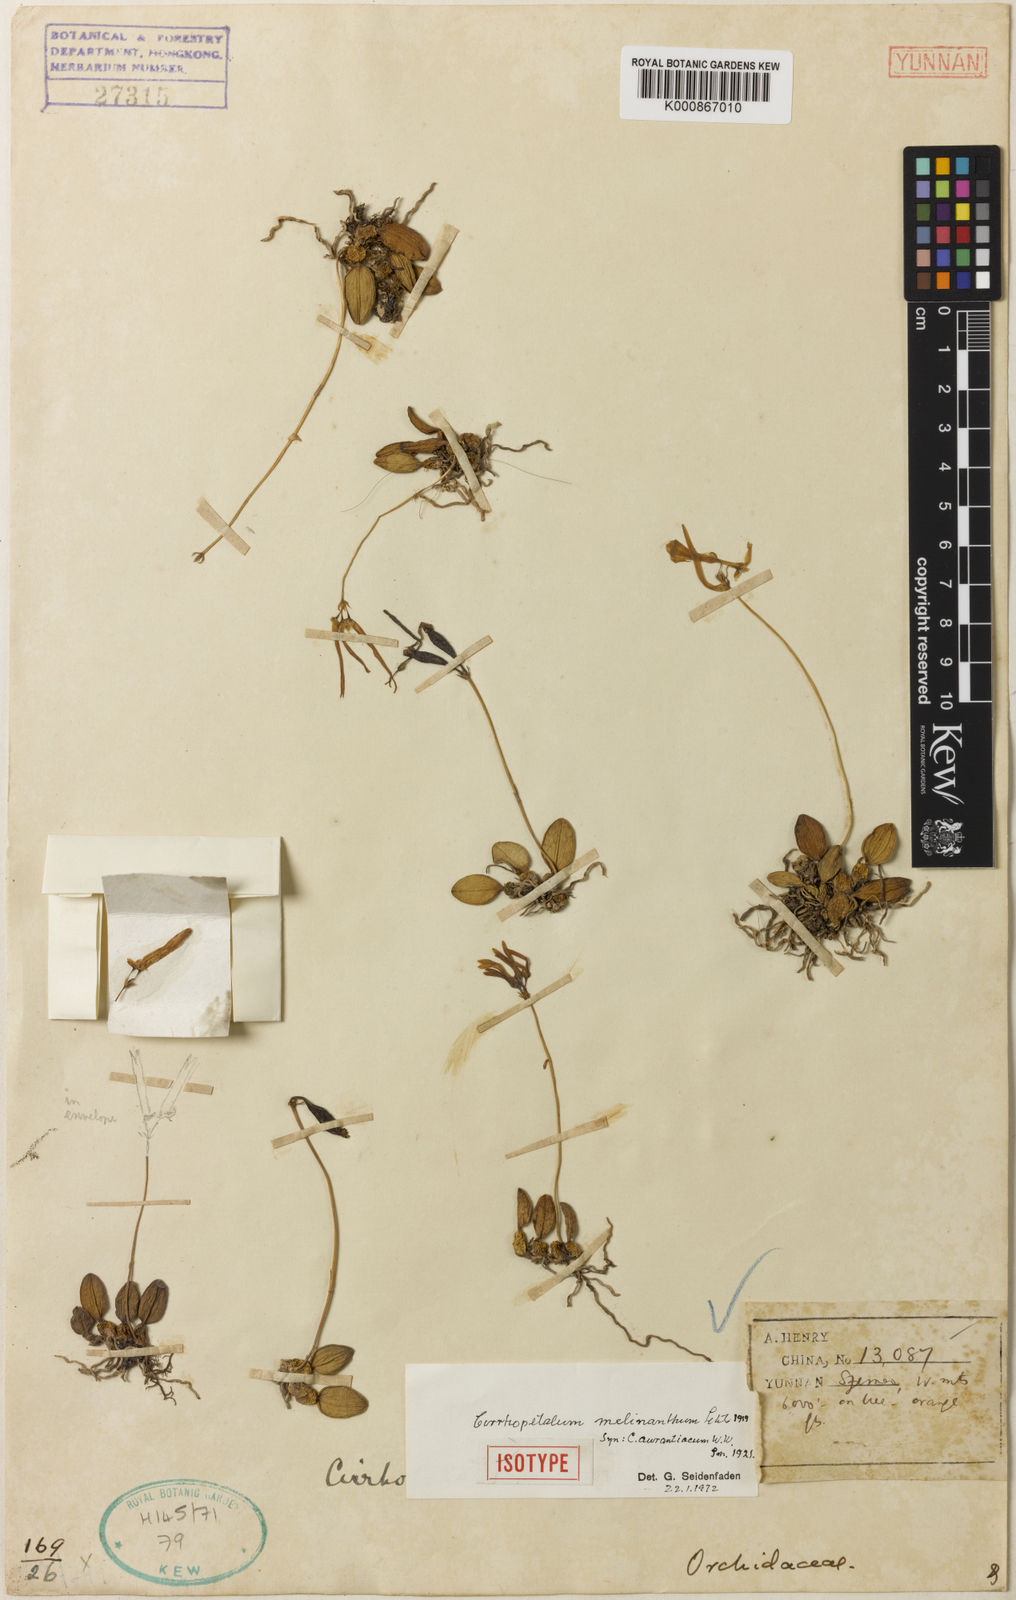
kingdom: Plantae
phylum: Tracheophyta
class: Liliopsida
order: Asparagales
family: Orchidaceae
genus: Bulbophyllum
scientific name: Bulbophyllum melinanthum
